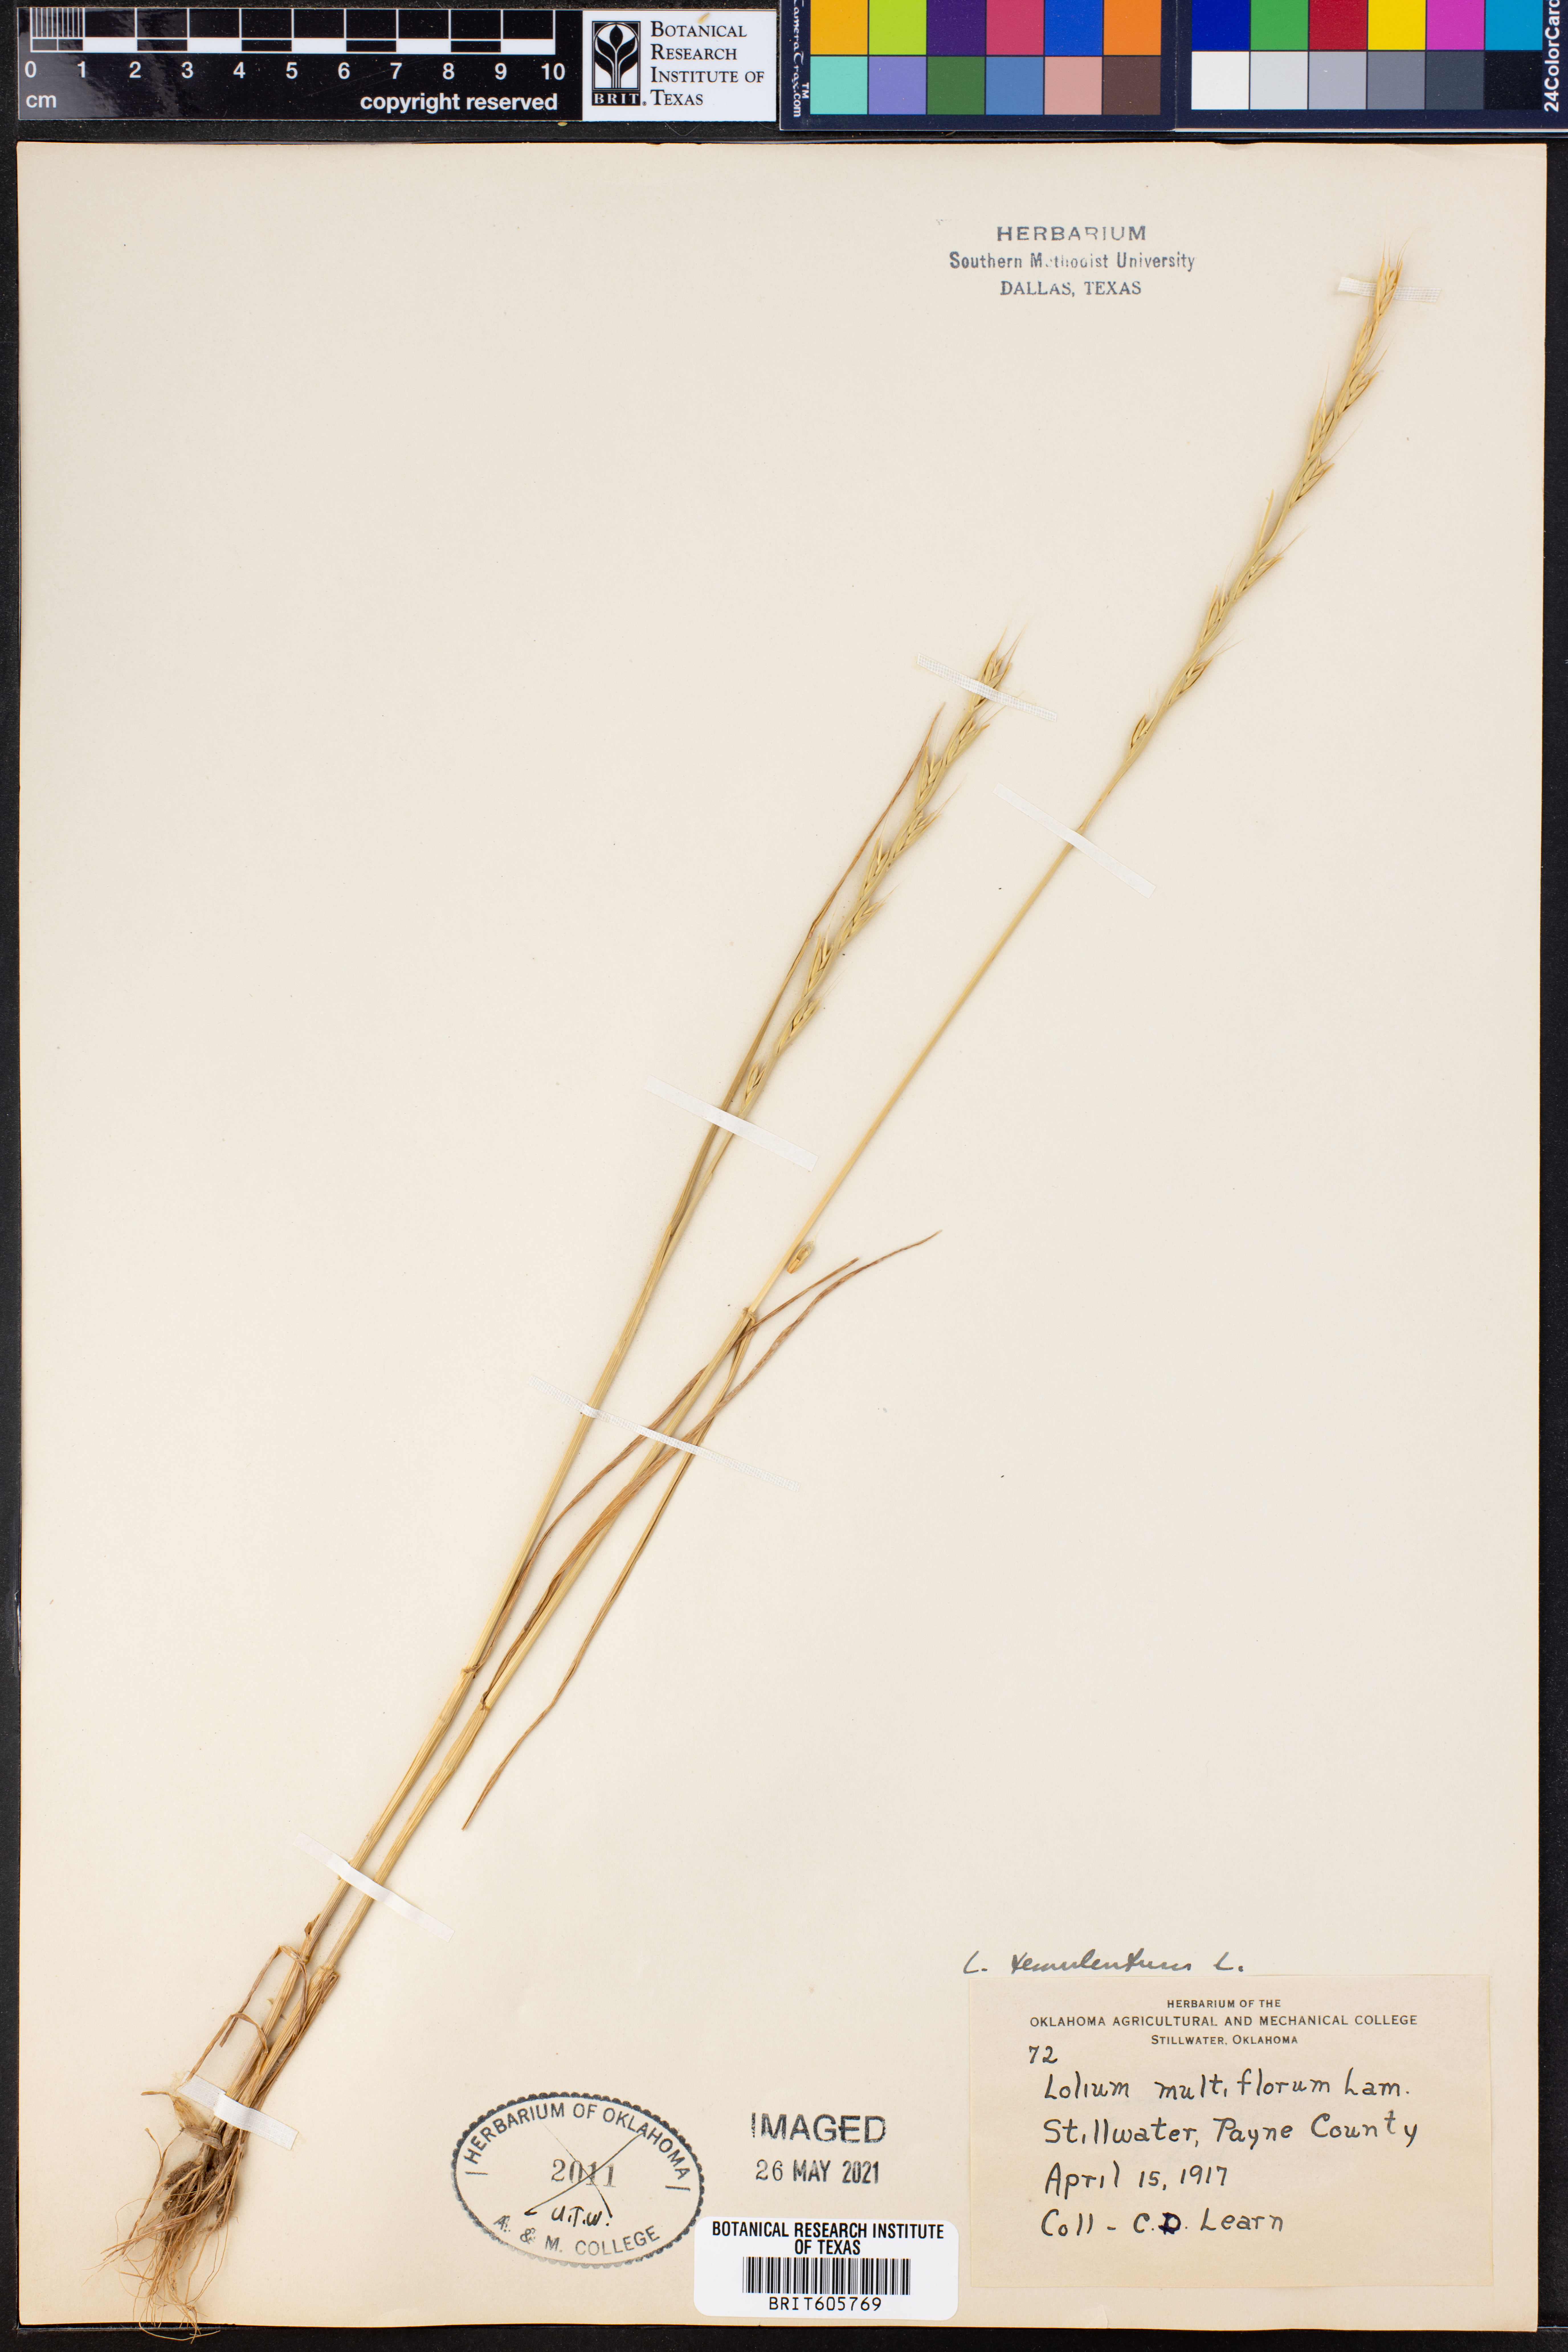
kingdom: Plantae
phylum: Tracheophyta
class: Liliopsida
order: Poales
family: Poaceae
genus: Lolium
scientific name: Lolium temulentum
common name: Darnel
